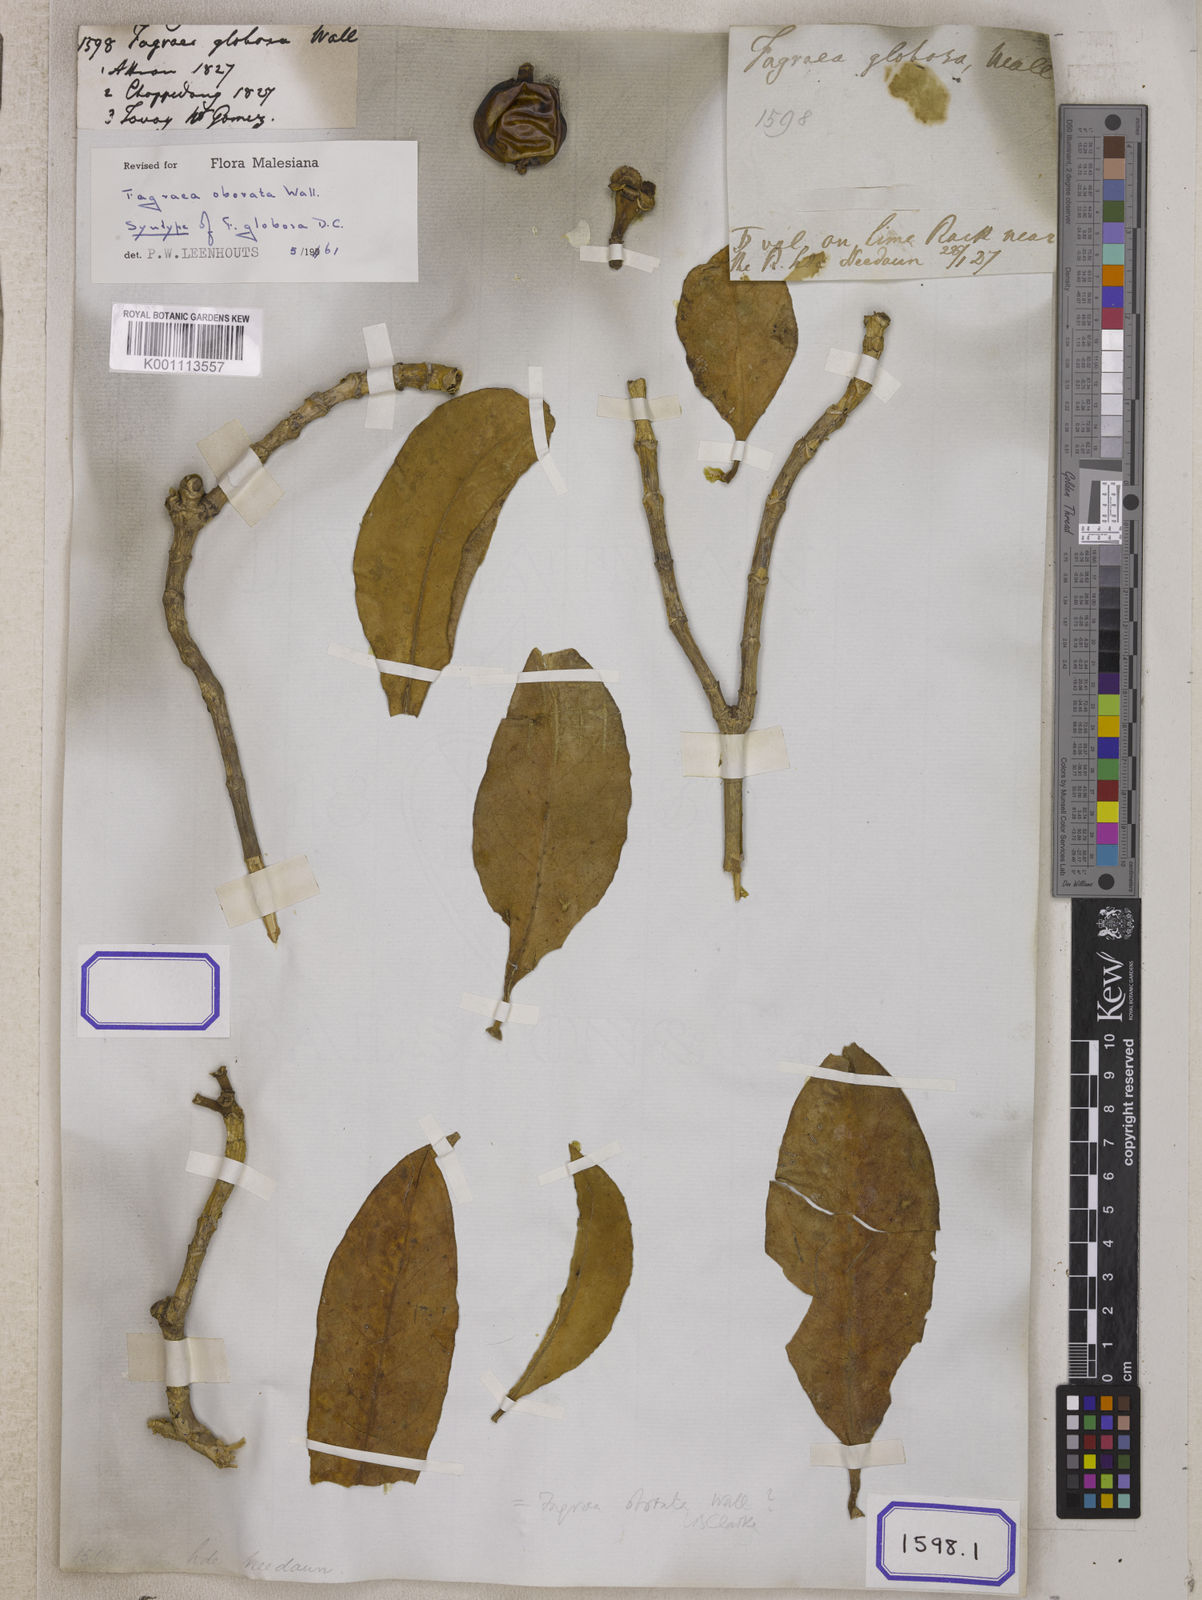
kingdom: Plantae
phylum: Tracheophyta
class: Magnoliopsida
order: Gentianales
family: Gentianaceae
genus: Fagraea
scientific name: Fagraea
